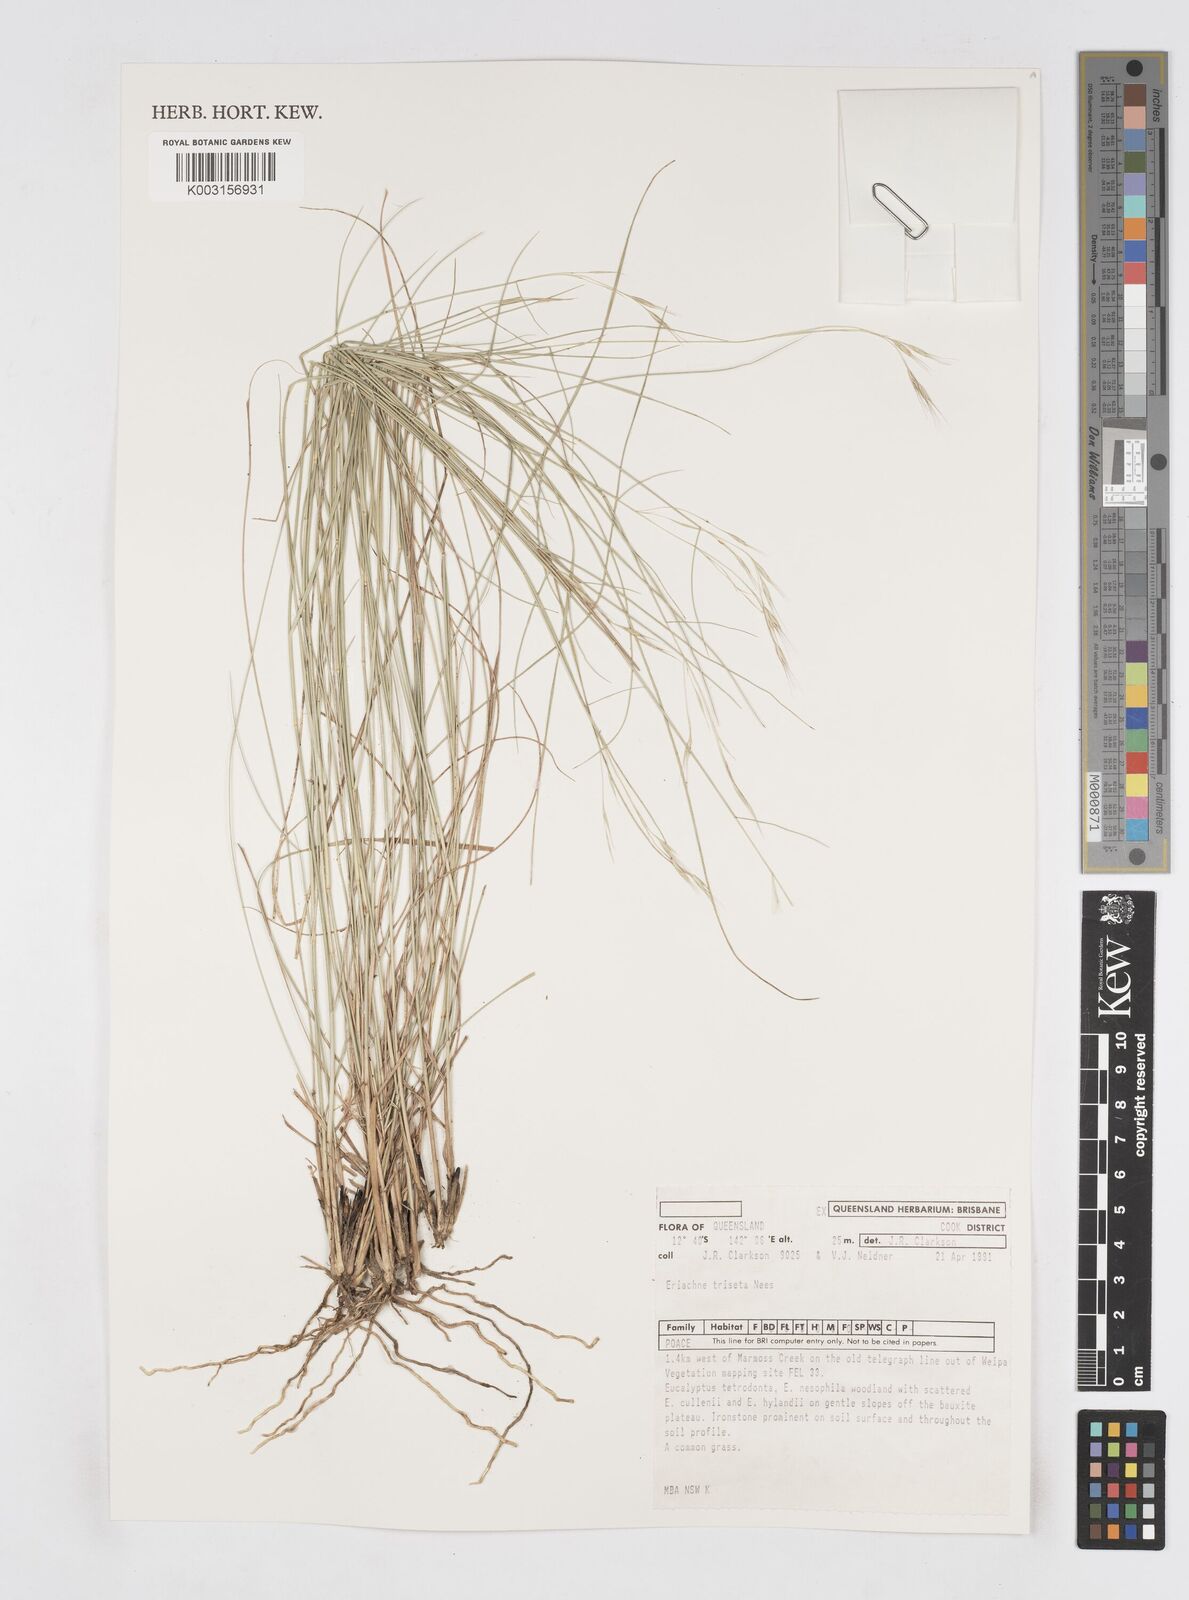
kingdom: Plantae
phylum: Tracheophyta
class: Liliopsida
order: Poales
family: Poaceae
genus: Eriachne
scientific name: Eriachne triseta
